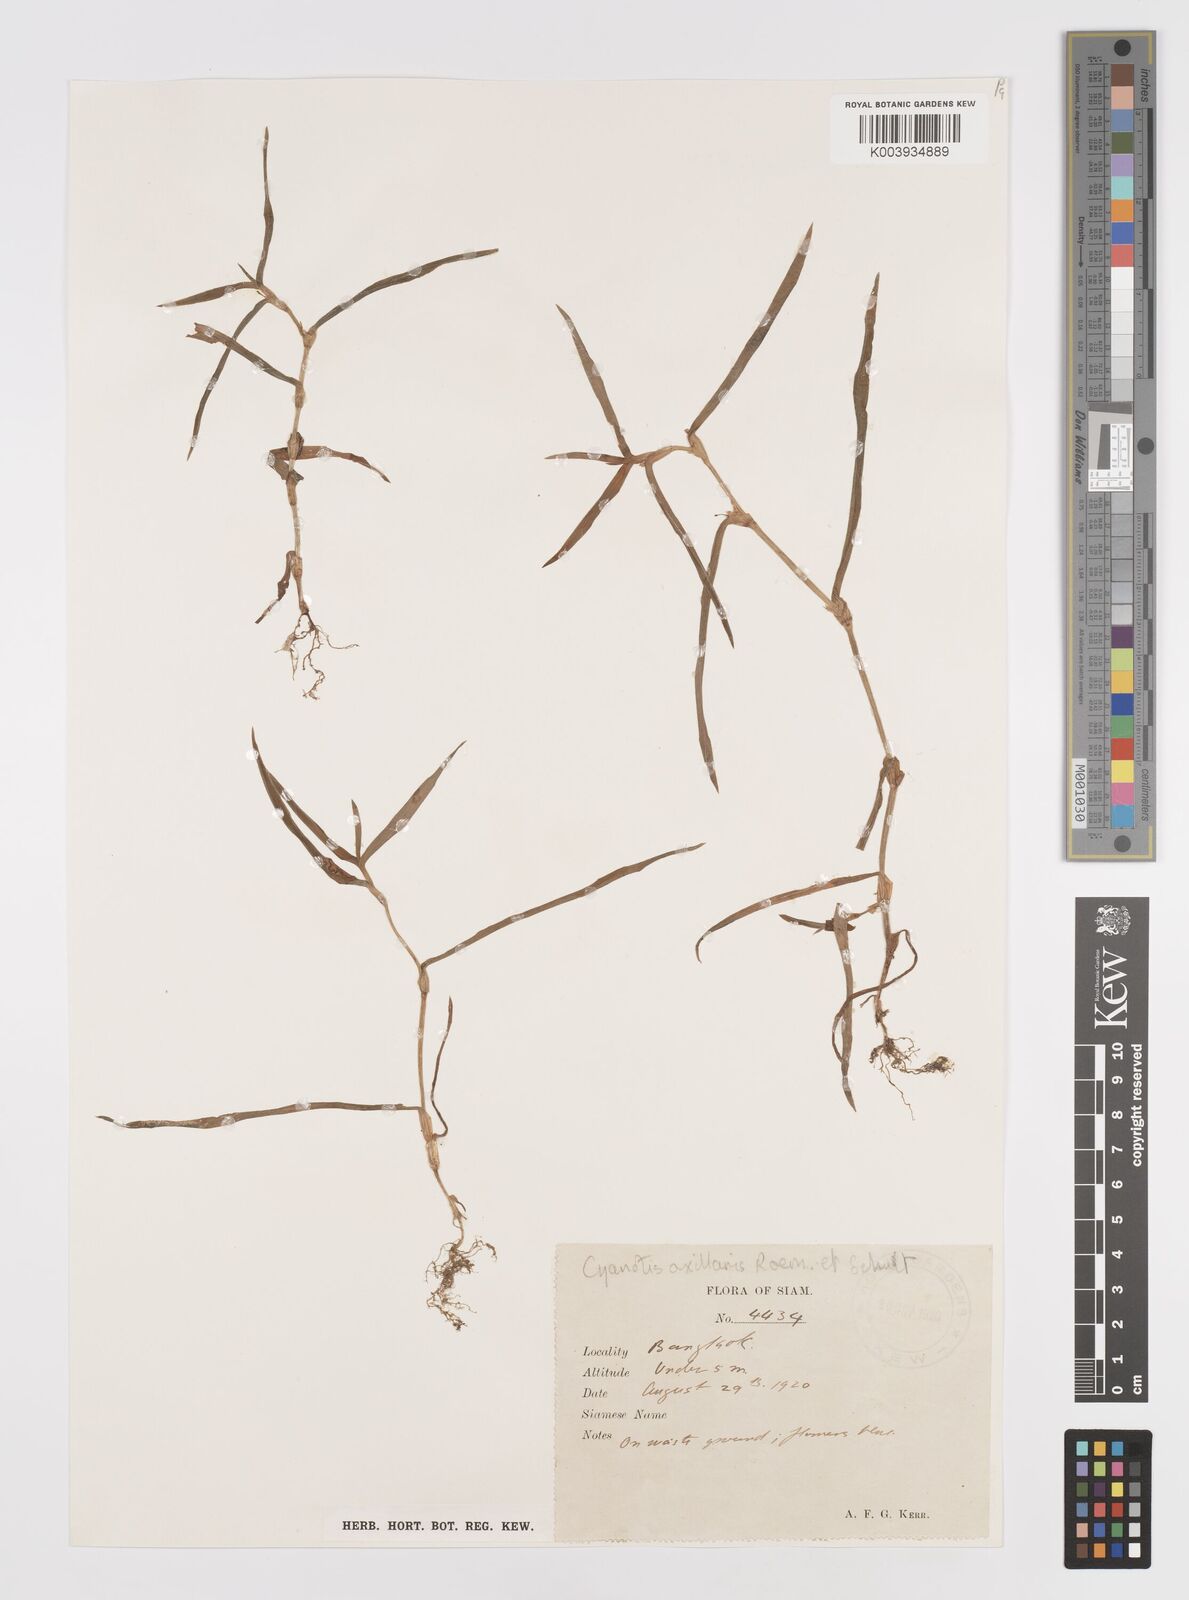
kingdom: Plantae
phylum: Tracheophyta
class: Liliopsida
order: Commelinales
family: Commelinaceae
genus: Cyanotis
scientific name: Cyanotis axillaris
